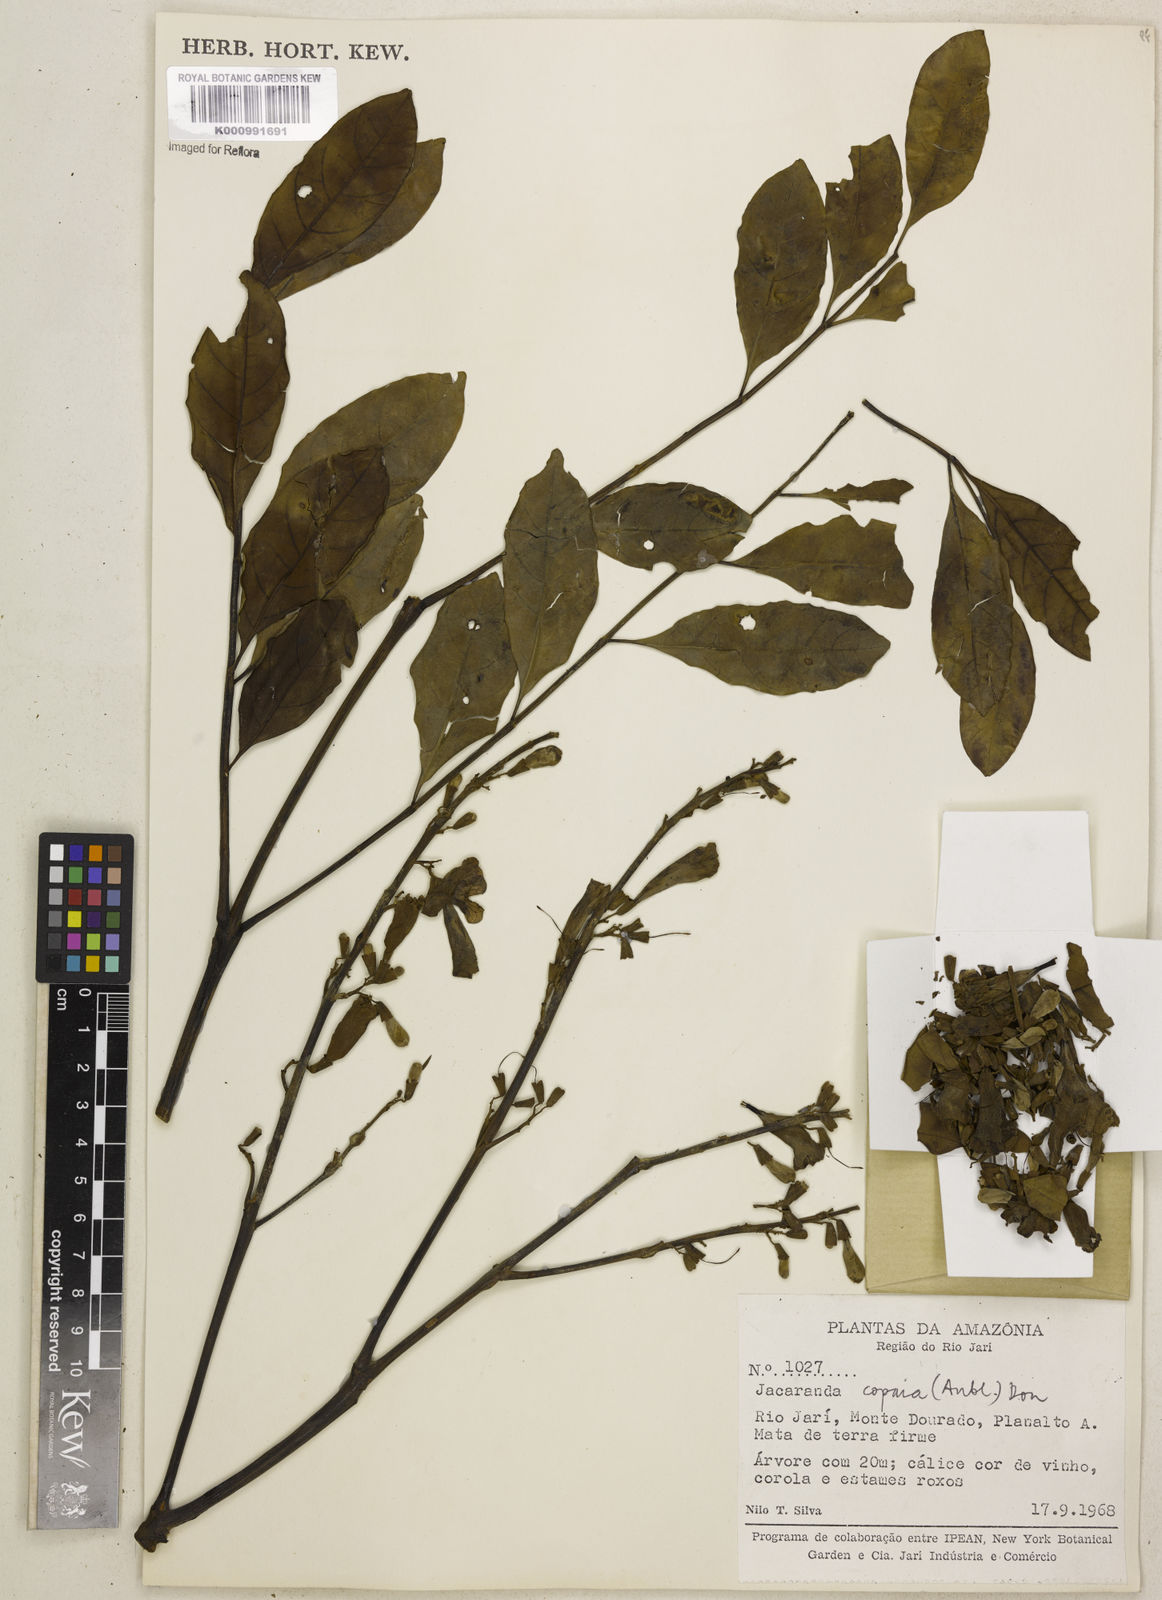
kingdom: Plantae
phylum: Tracheophyta
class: Magnoliopsida
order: Lamiales
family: Bignoniaceae
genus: Jacaranda
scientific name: Jacaranda
